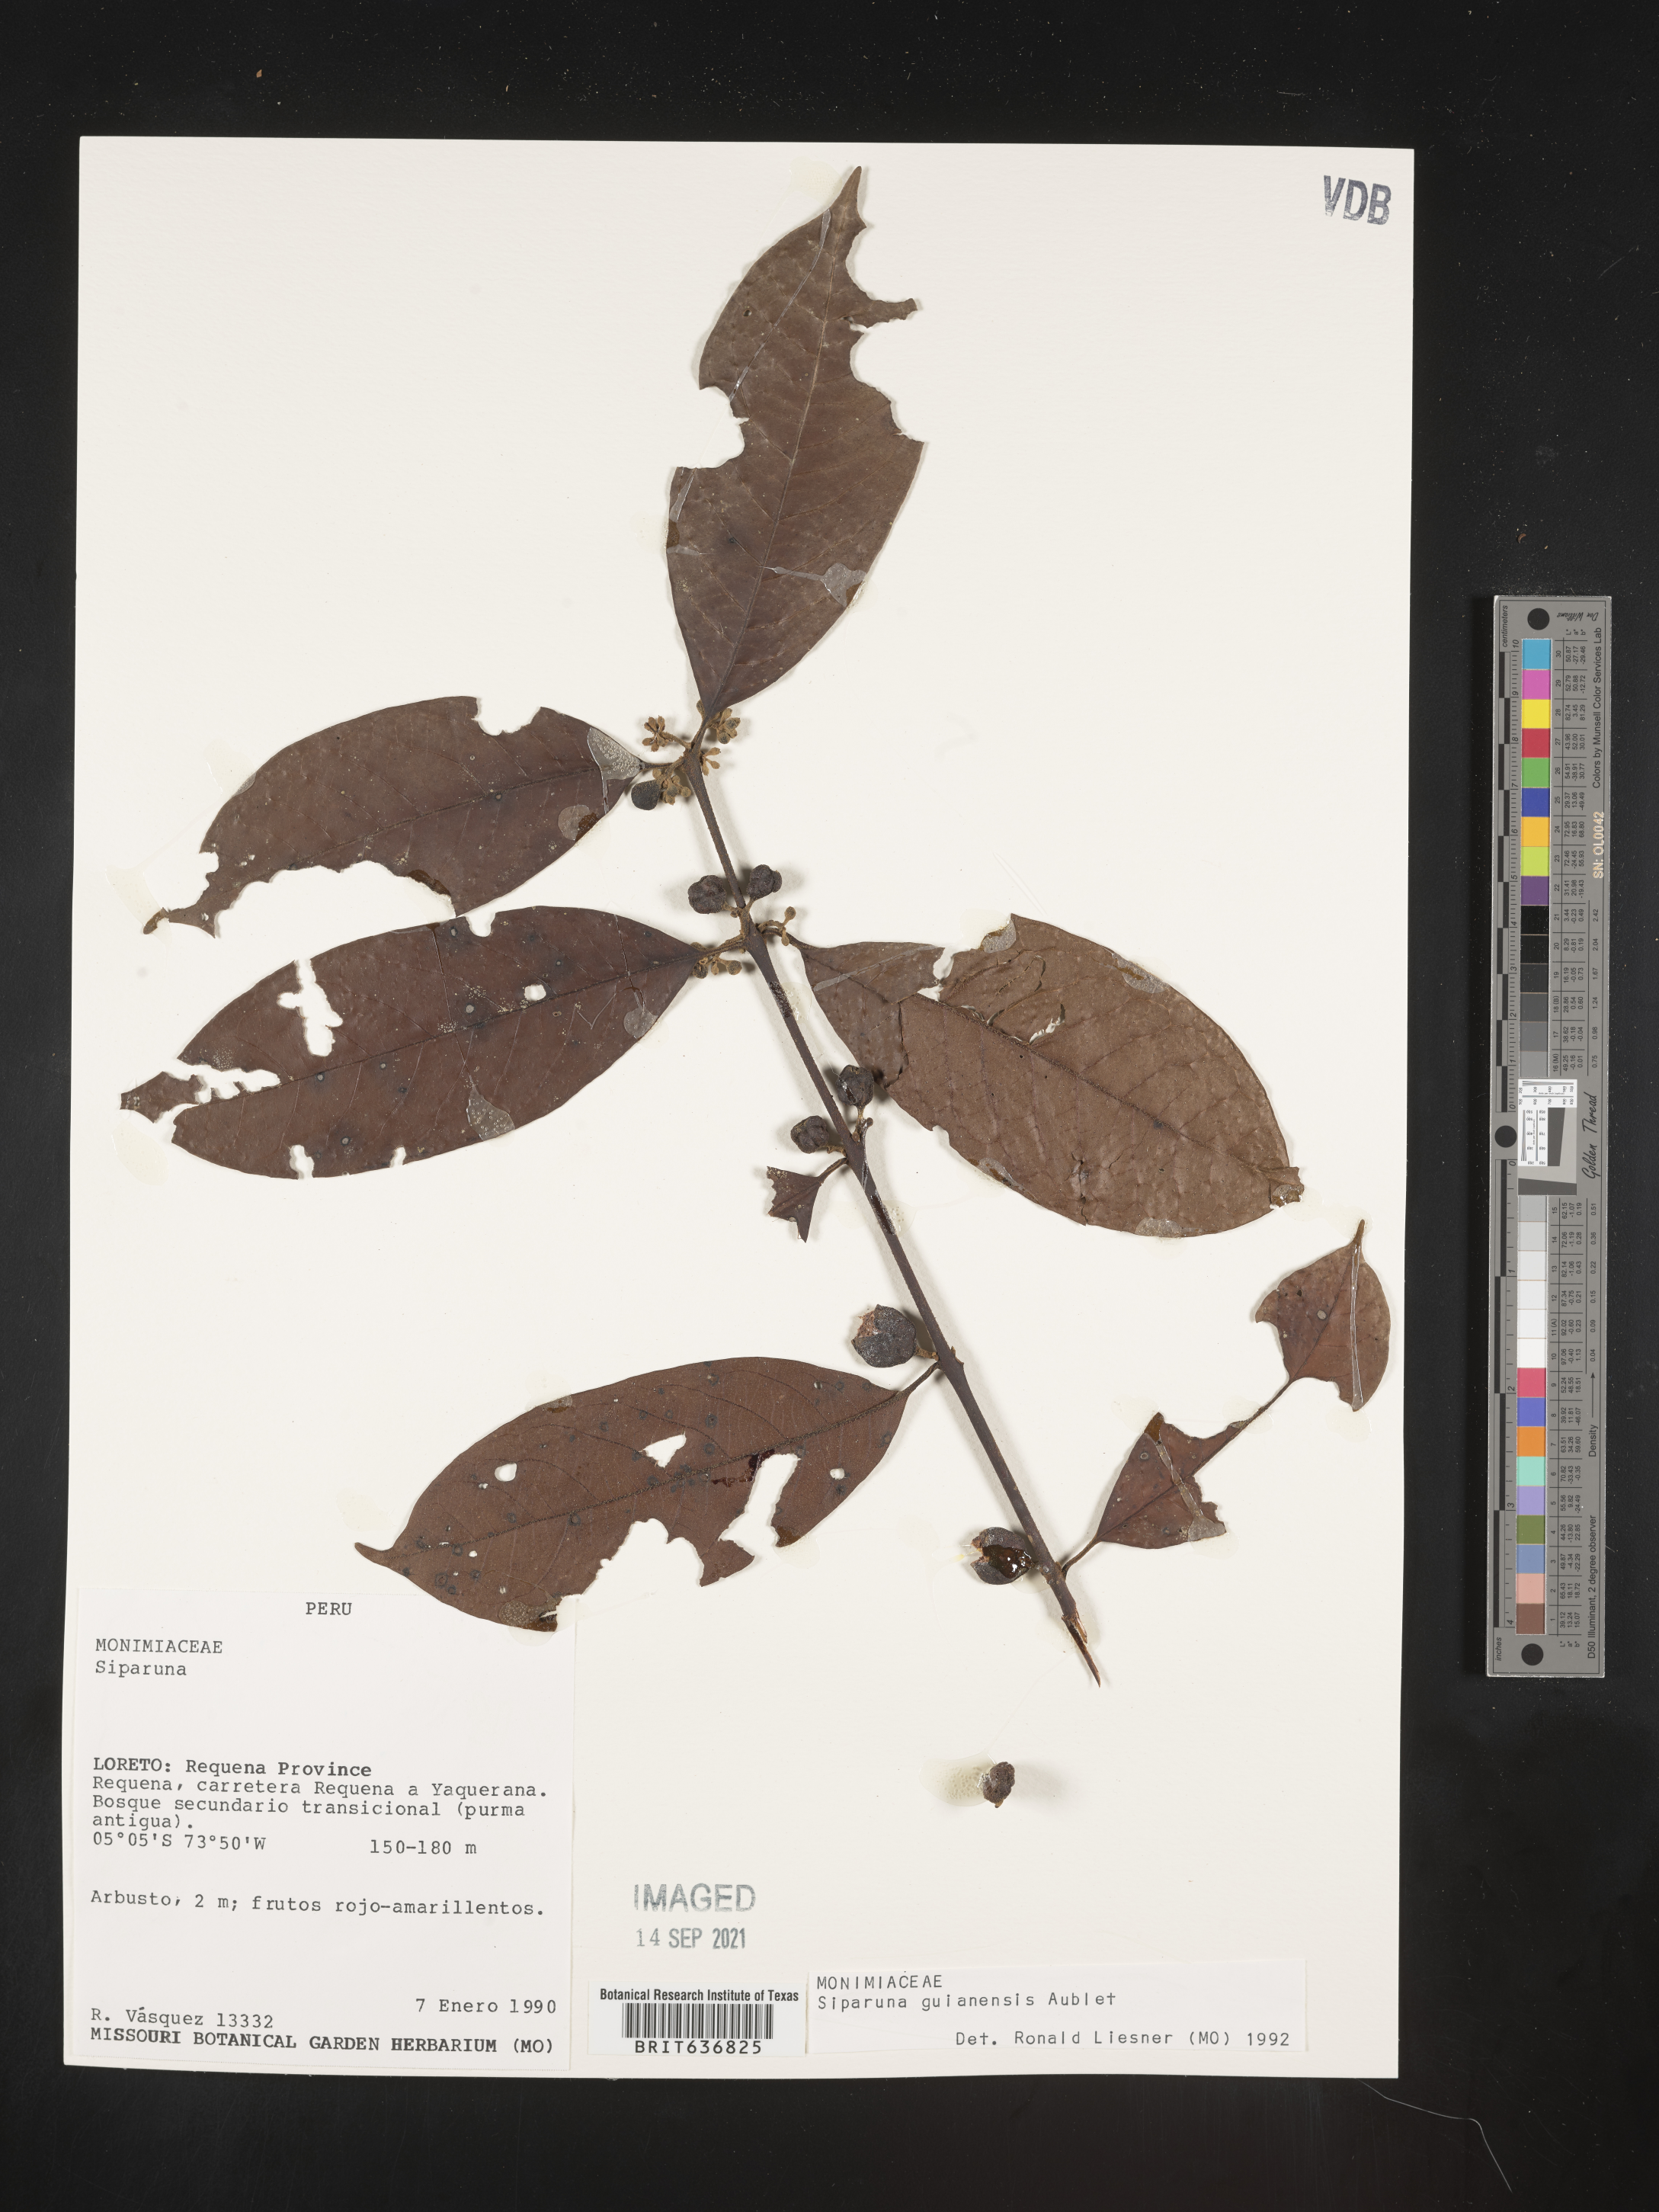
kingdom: Plantae
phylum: Tracheophyta
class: Magnoliopsida
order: Laurales
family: Siparunaceae
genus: Siparuna
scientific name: Siparuna
